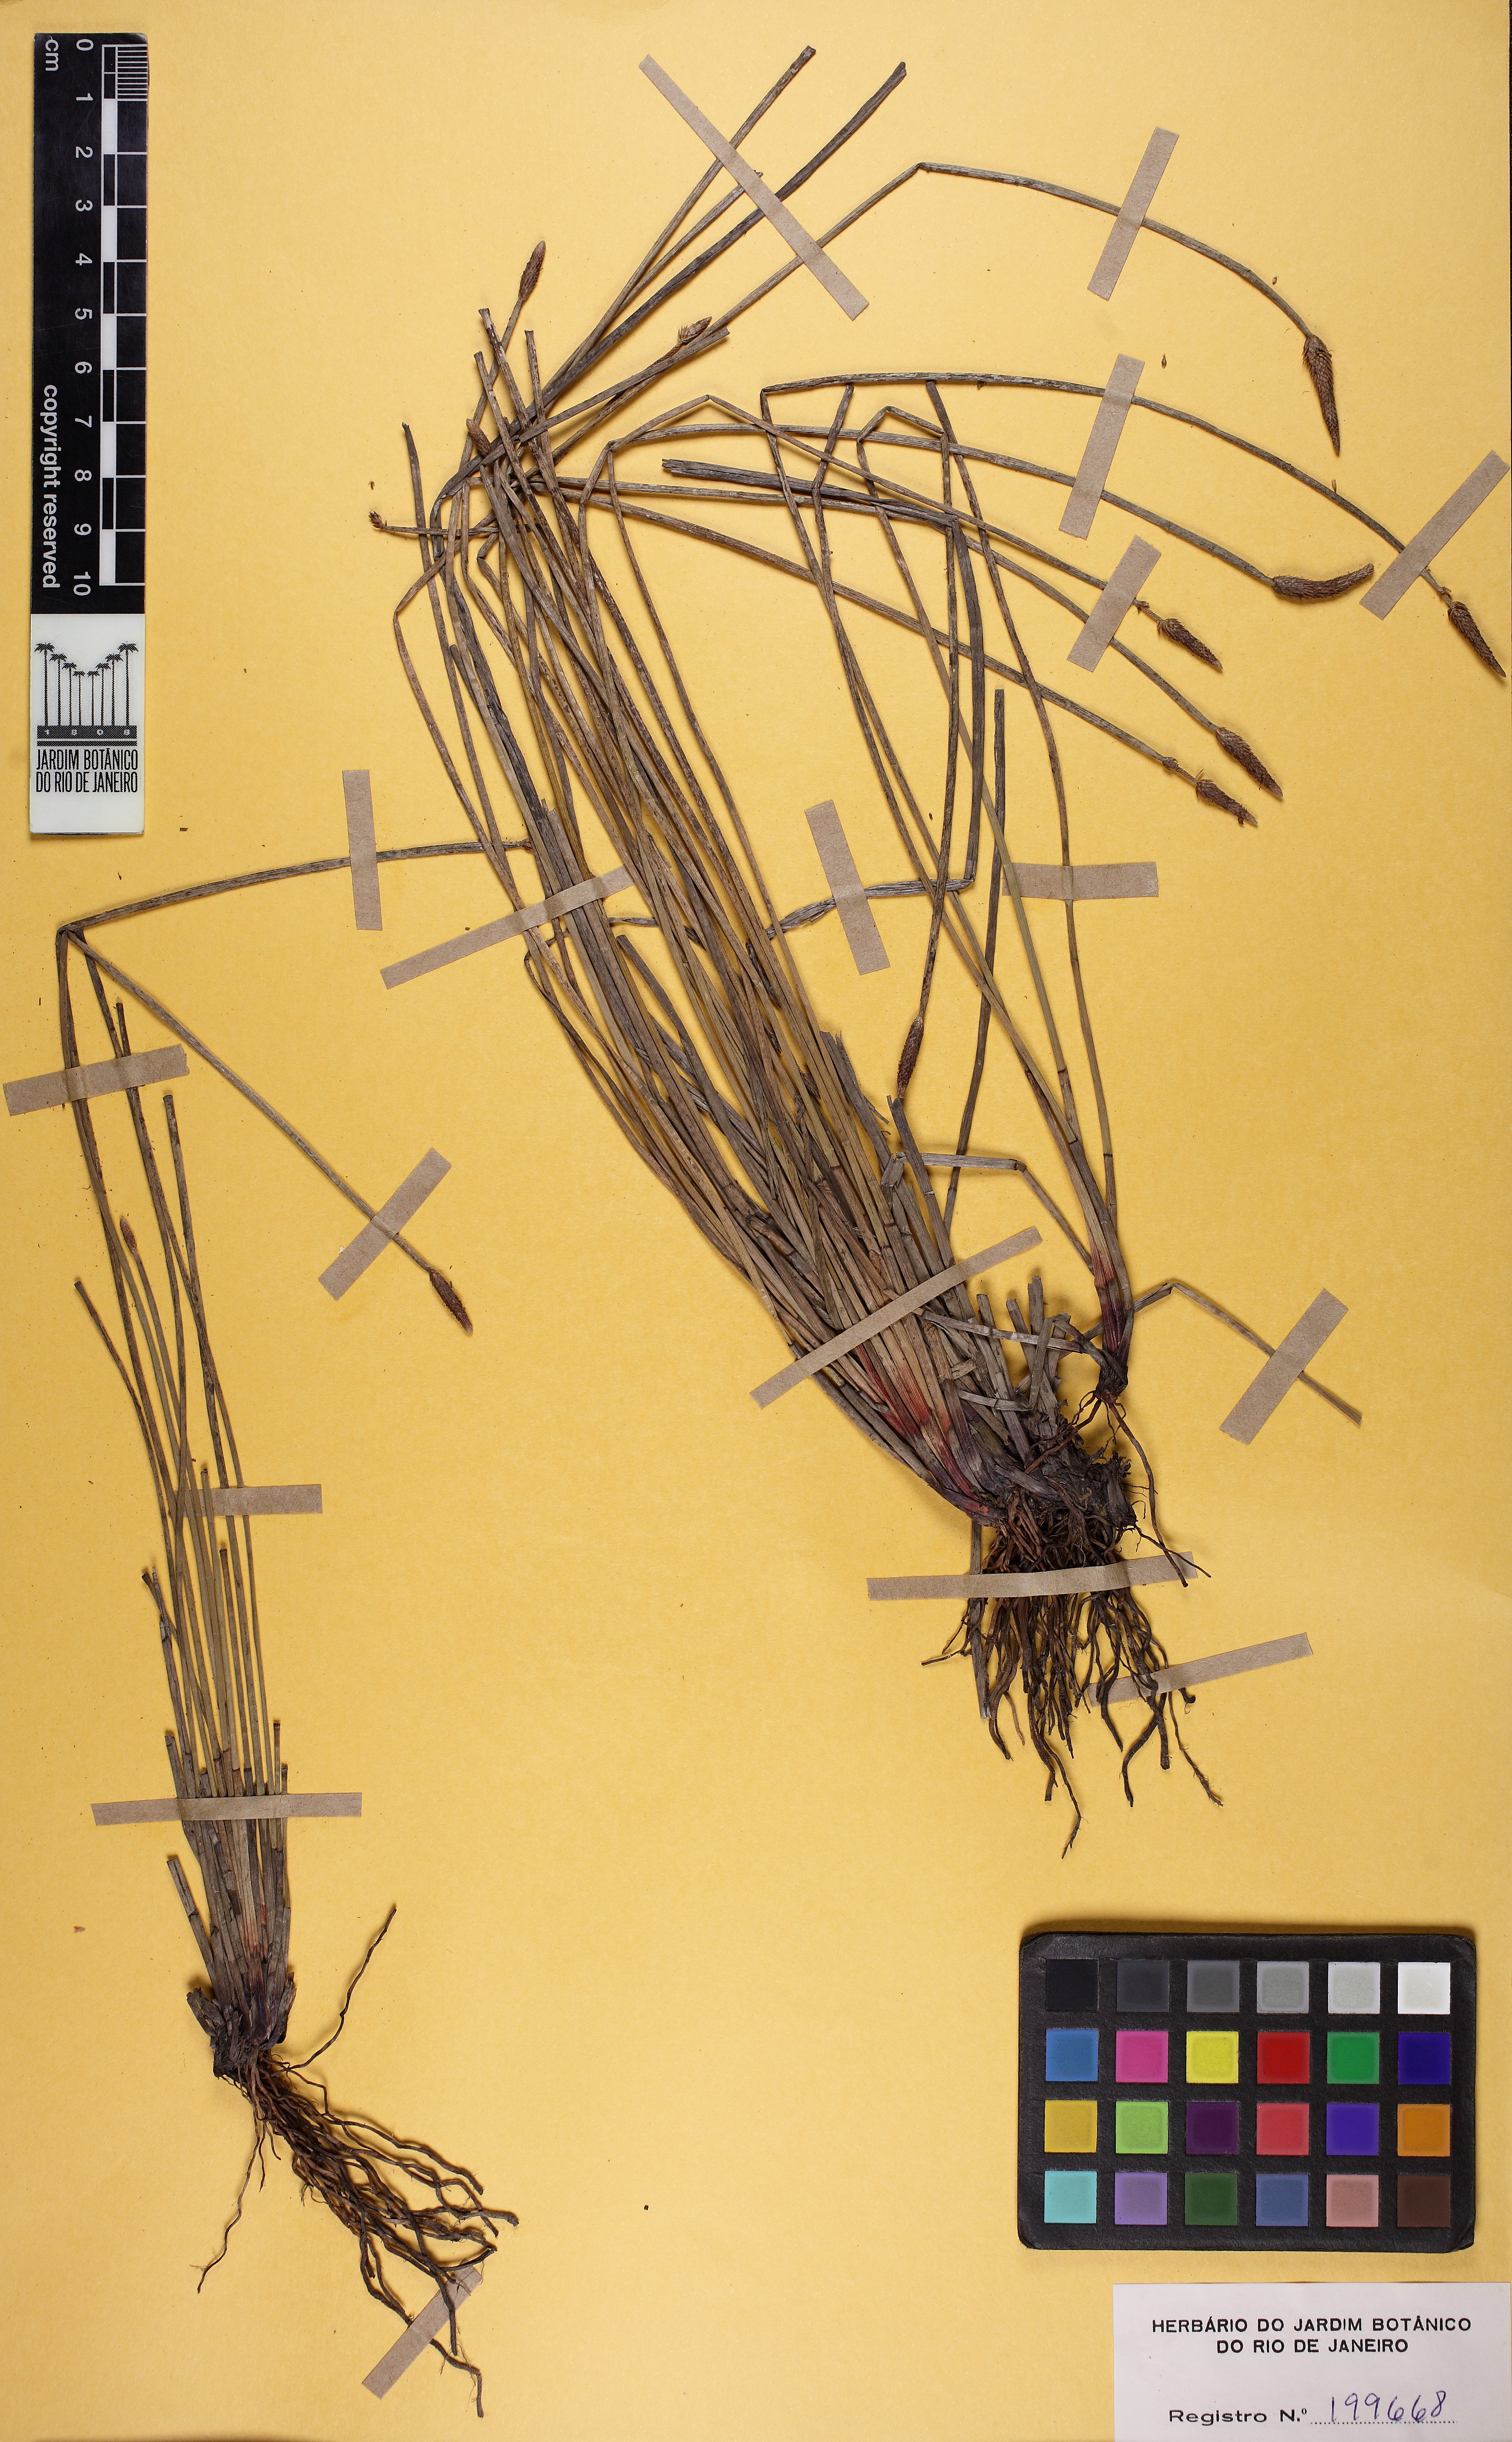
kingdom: Plantae
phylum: Tracheophyta
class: Liliopsida
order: Poales
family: Cyperaceae
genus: Eleocharis
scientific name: Eleocharis montana
